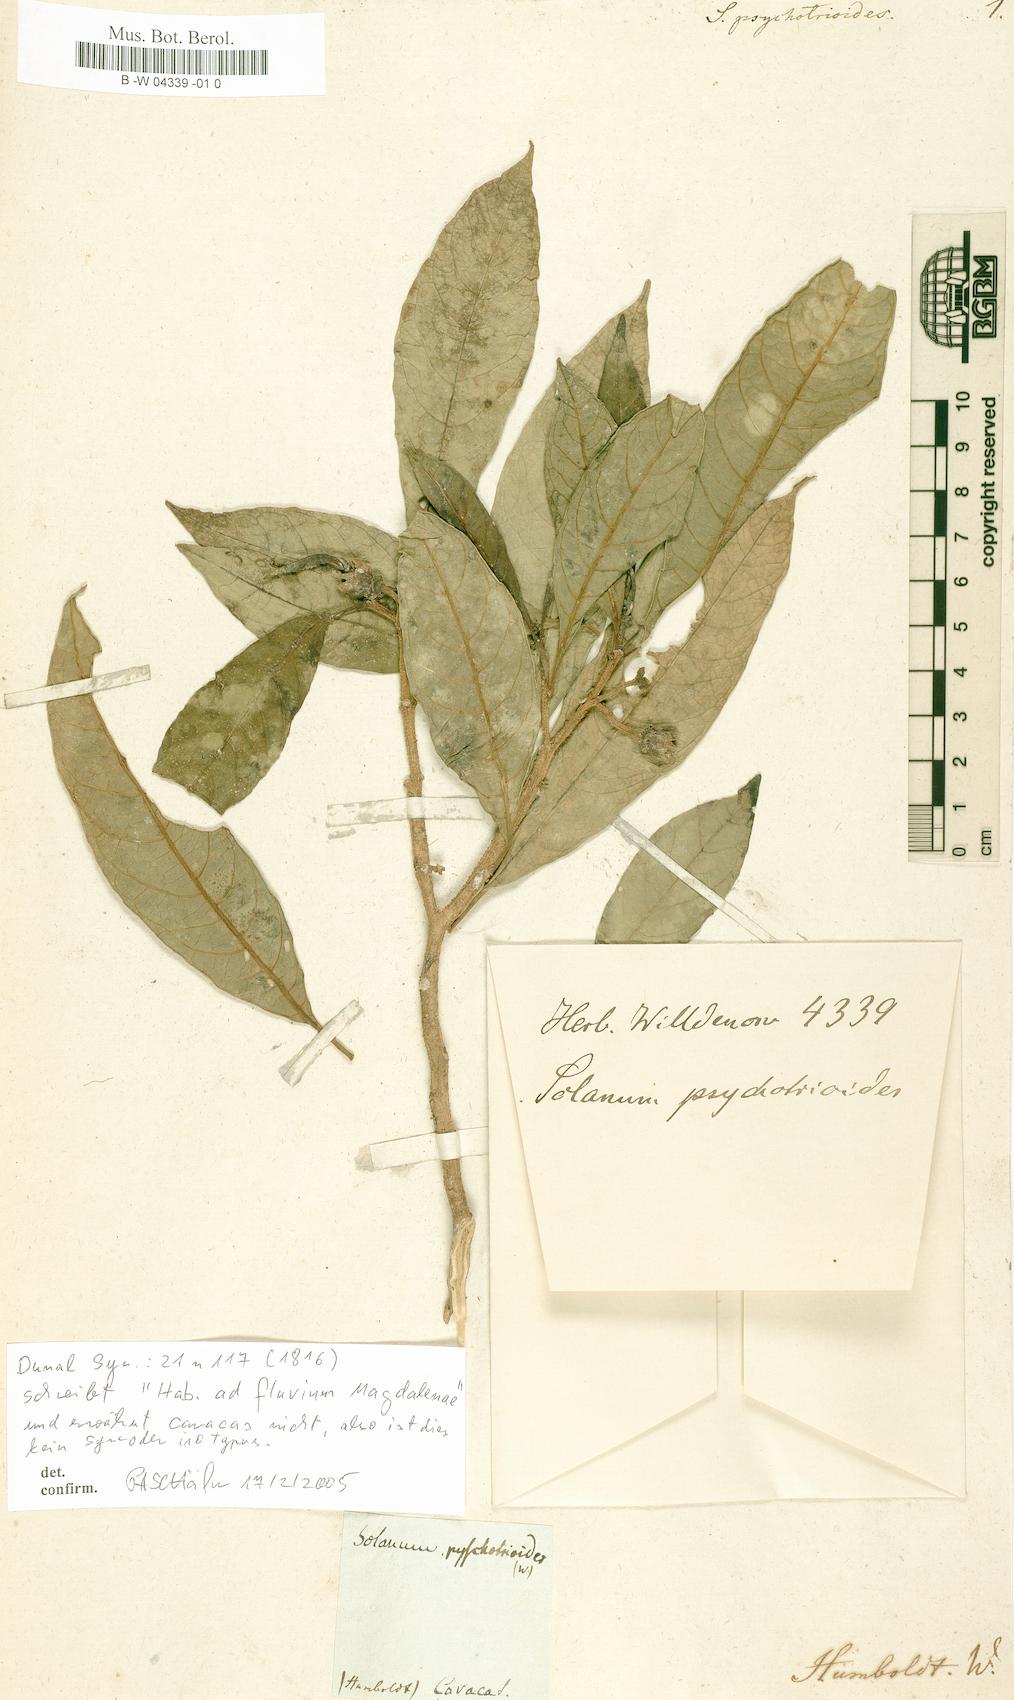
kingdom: Plantae
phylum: Tracheophyta
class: Magnoliopsida
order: Solanales
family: Solanaceae
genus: Solanum
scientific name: Solanum psychotrioides
